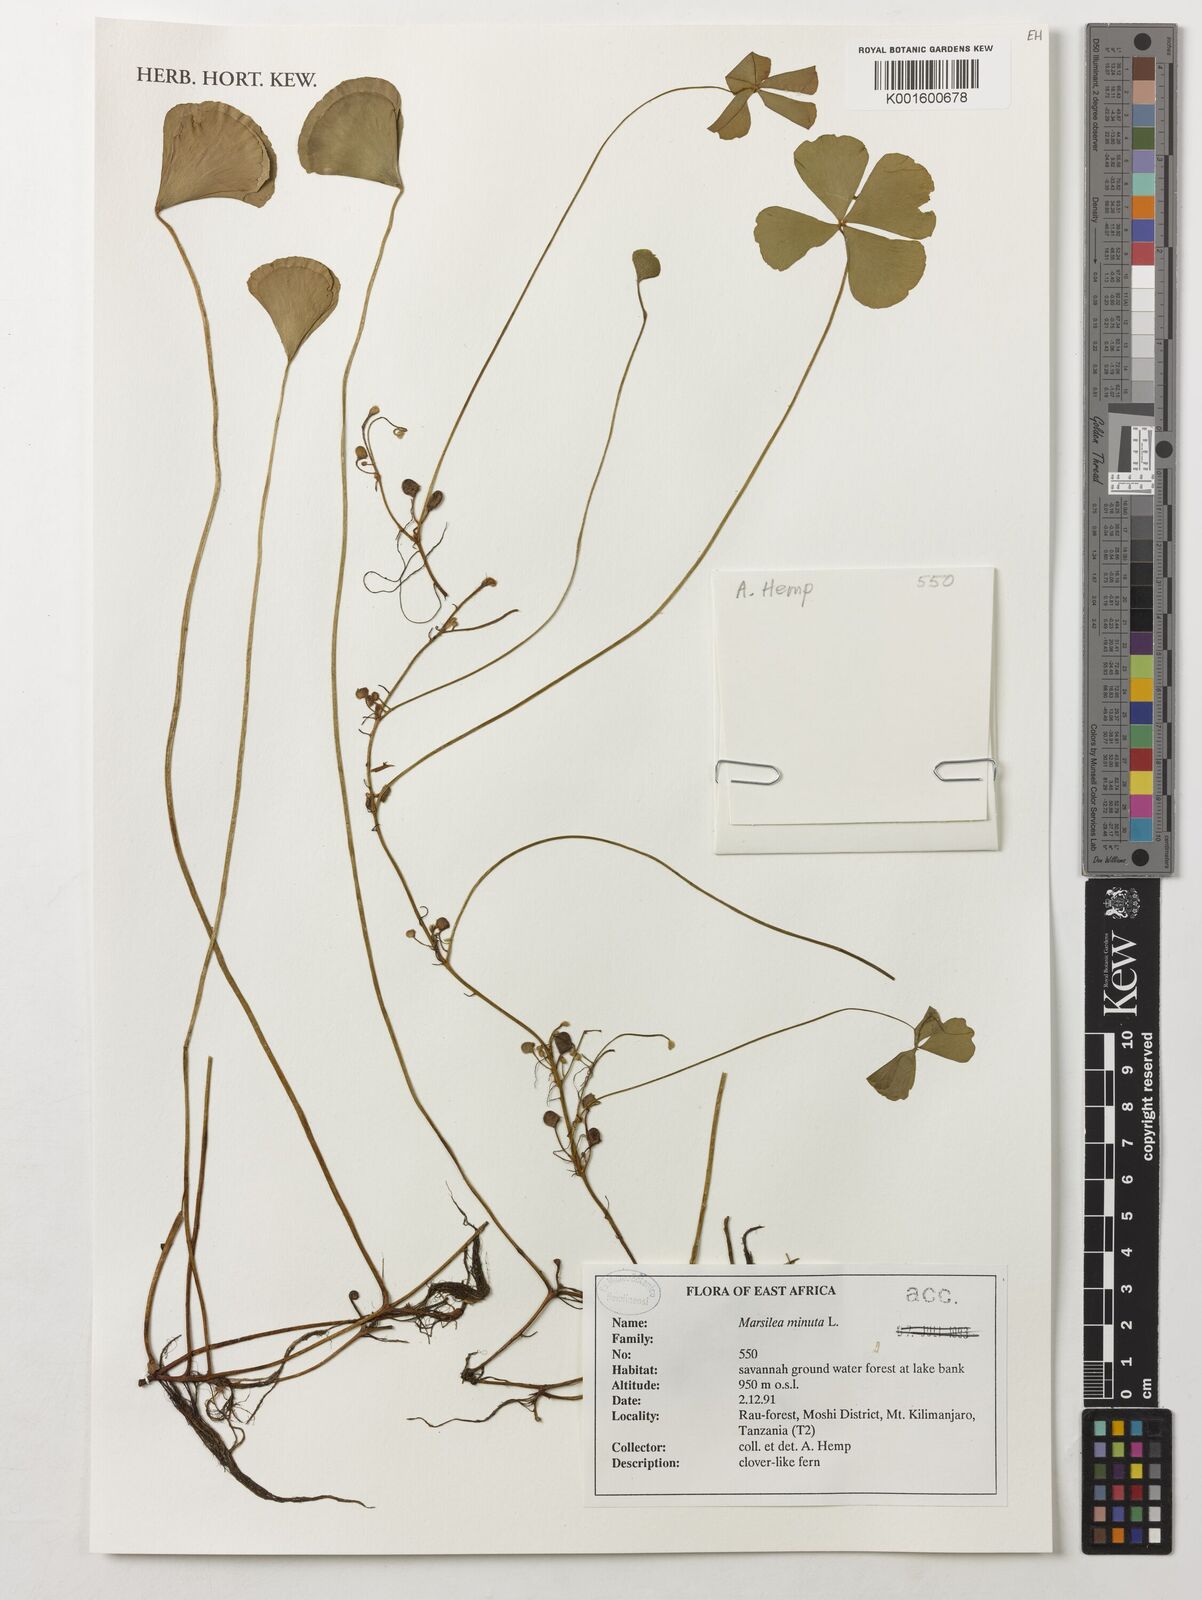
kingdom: Plantae
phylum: Tracheophyta
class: Polypodiopsida
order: Salviniales
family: Marsileaceae
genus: Marsilea
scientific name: Marsilea minuta
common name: Dwarf waterclover
